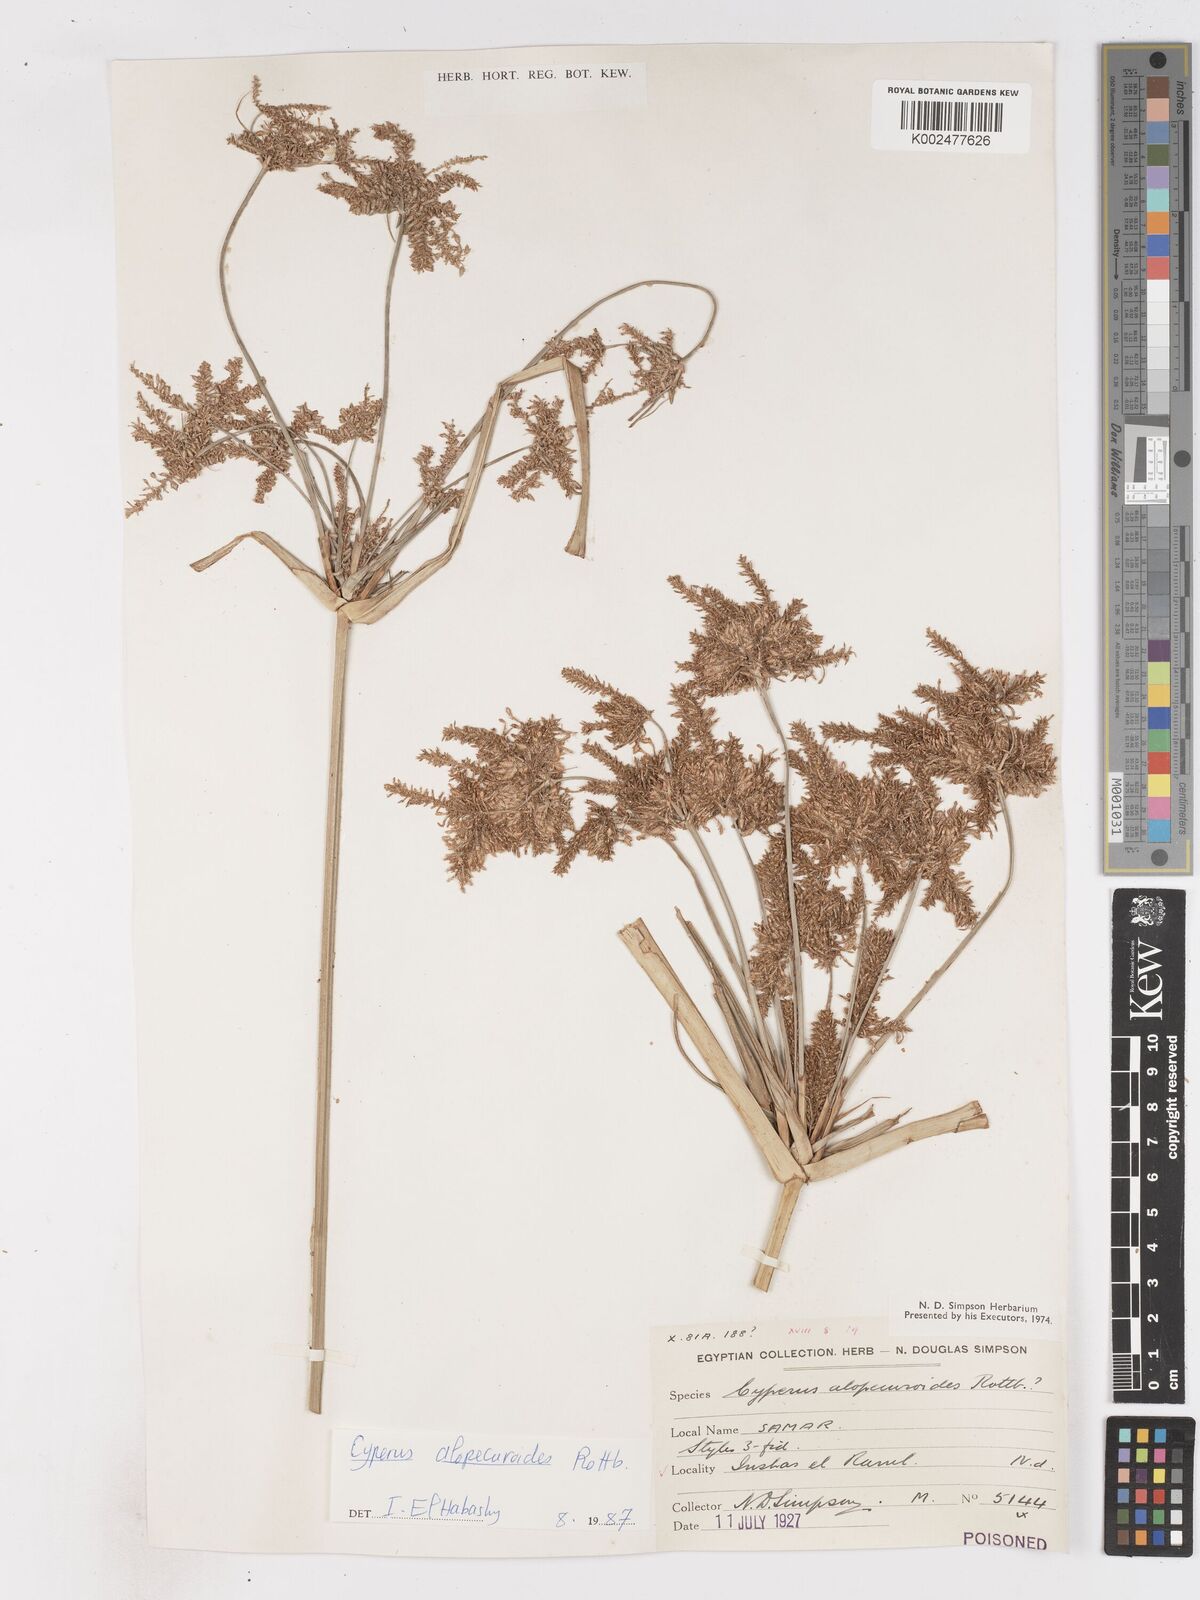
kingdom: Plantae
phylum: Tracheophyta
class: Liliopsida
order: Poales
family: Cyperaceae
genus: Cyperus
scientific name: Cyperus
